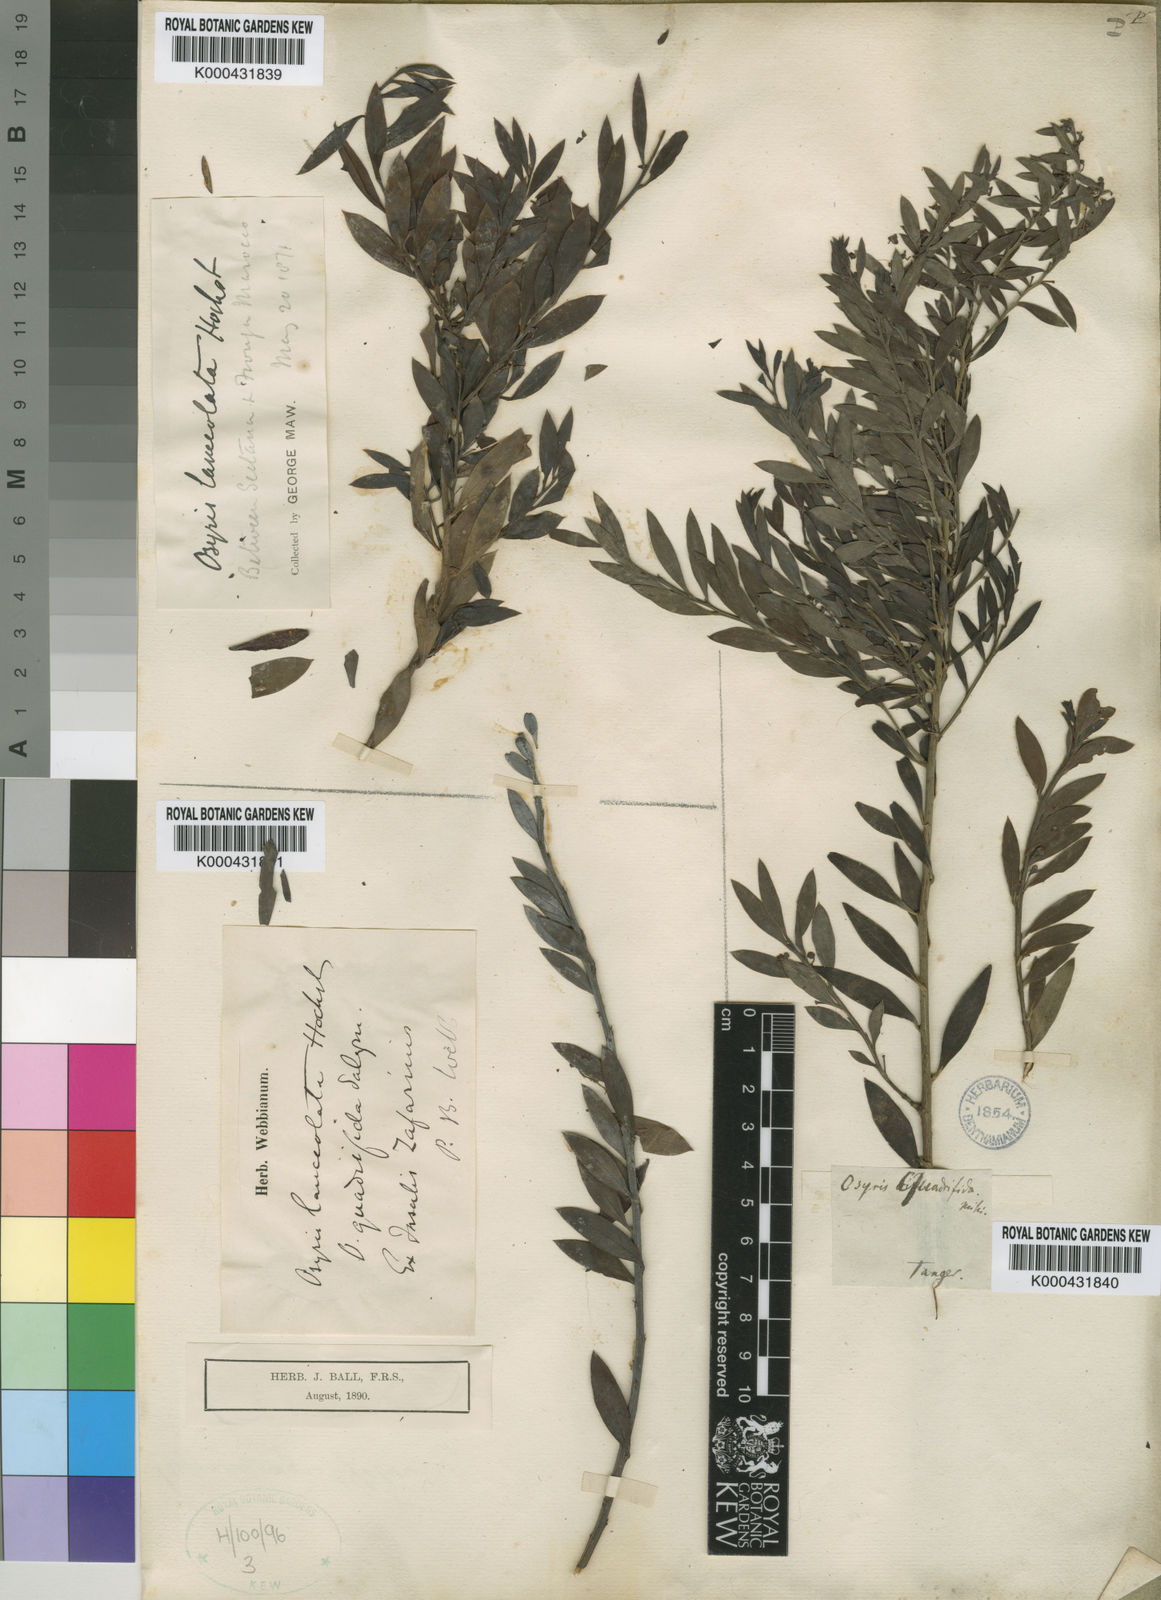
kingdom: Plantae
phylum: Tracheophyta
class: Magnoliopsida
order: Santalales
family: Santalaceae
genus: Osyris
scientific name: Osyris lanceolata
